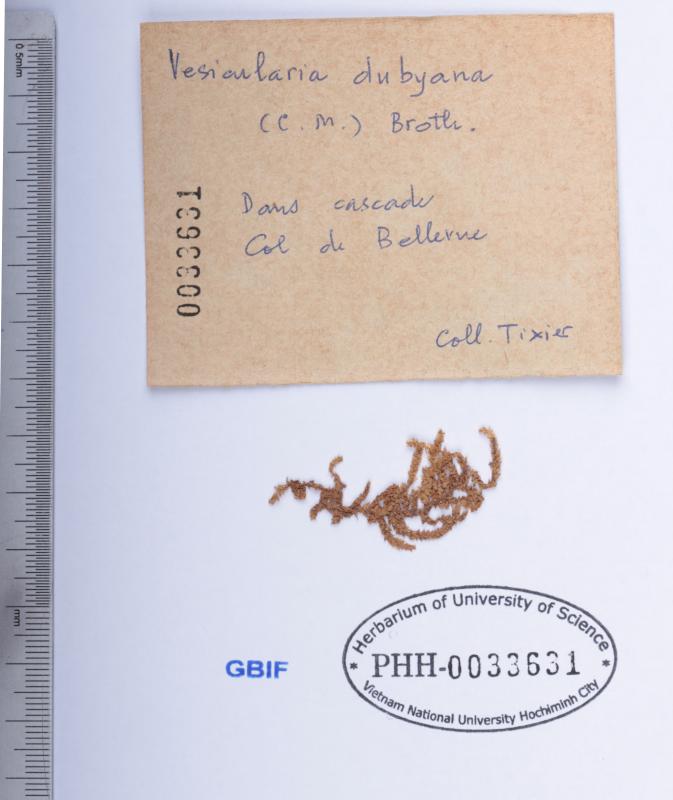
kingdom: Plantae
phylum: Bryophyta
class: Bryopsida
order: Hypnales
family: Hypnaceae
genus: Vesicularia
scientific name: Vesicularia dubyana
